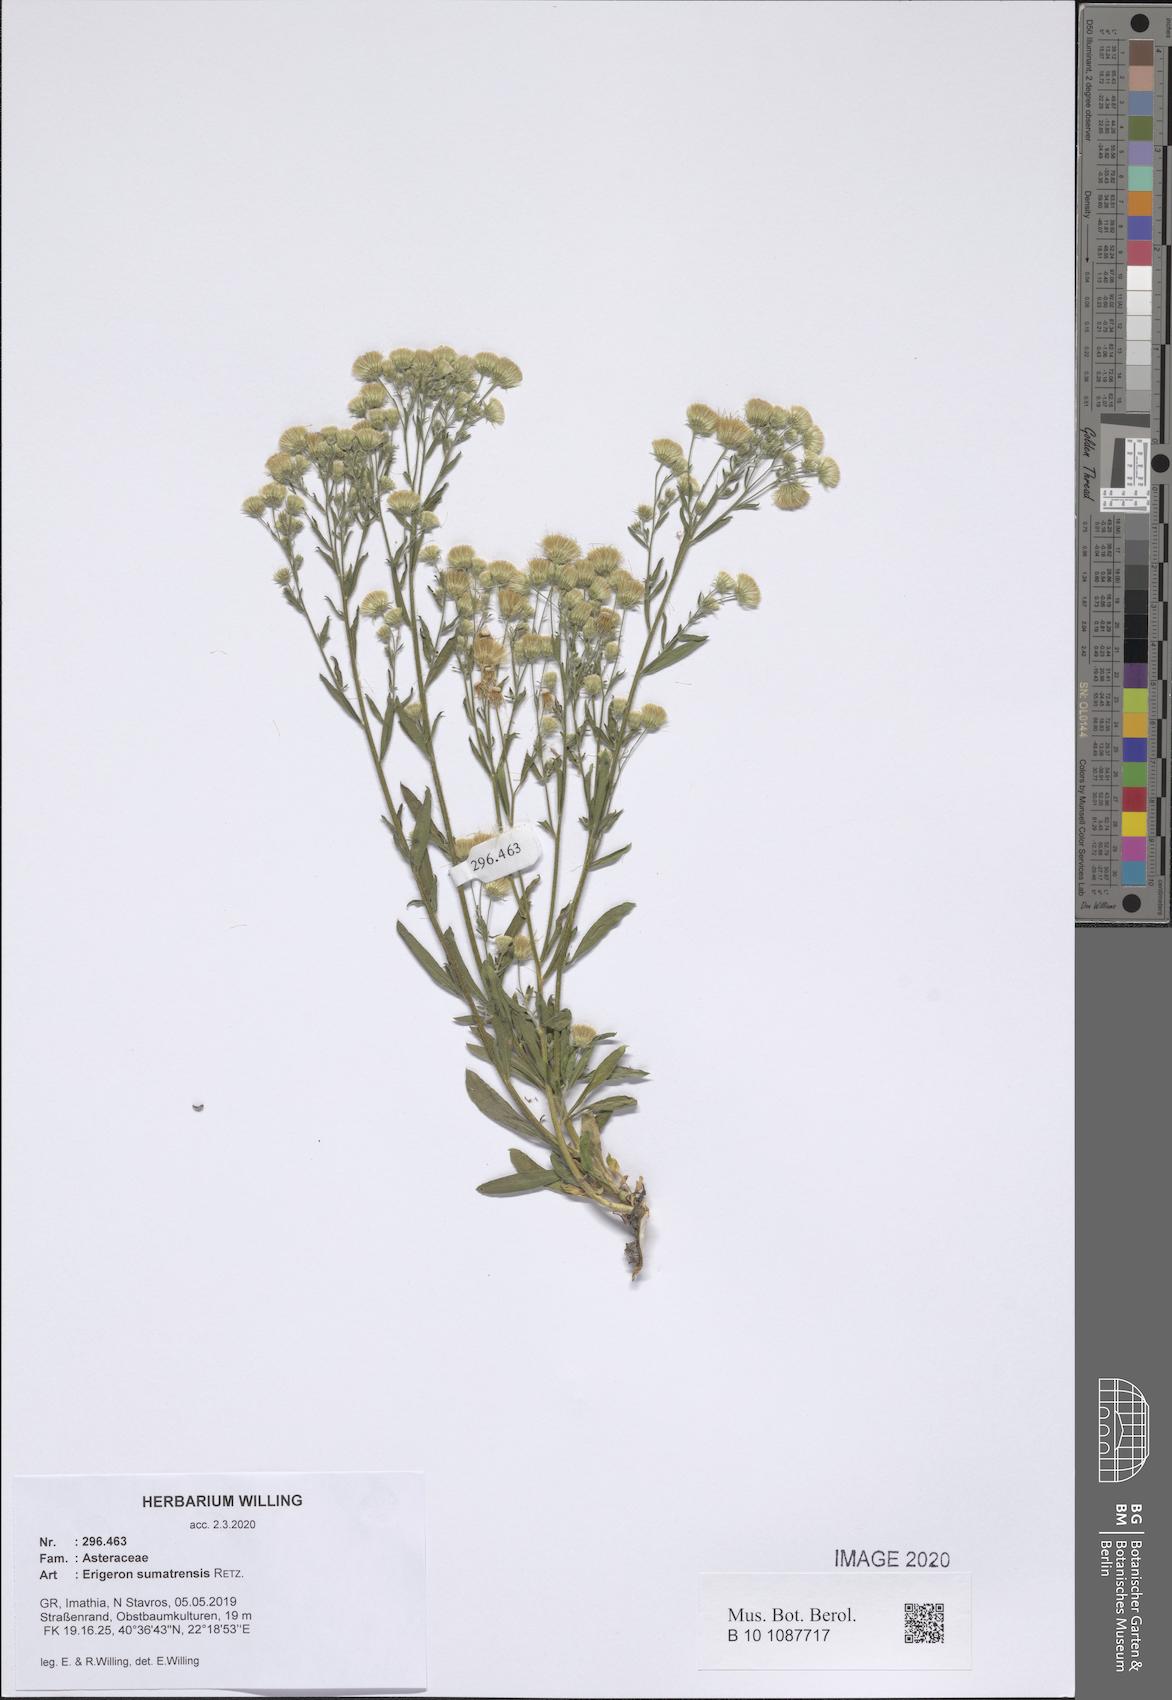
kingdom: Plantae
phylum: Tracheophyta
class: Magnoliopsida
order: Asterales
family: Asteraceae
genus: Erigeron
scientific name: Erigeron sumatrensis
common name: Daisy
